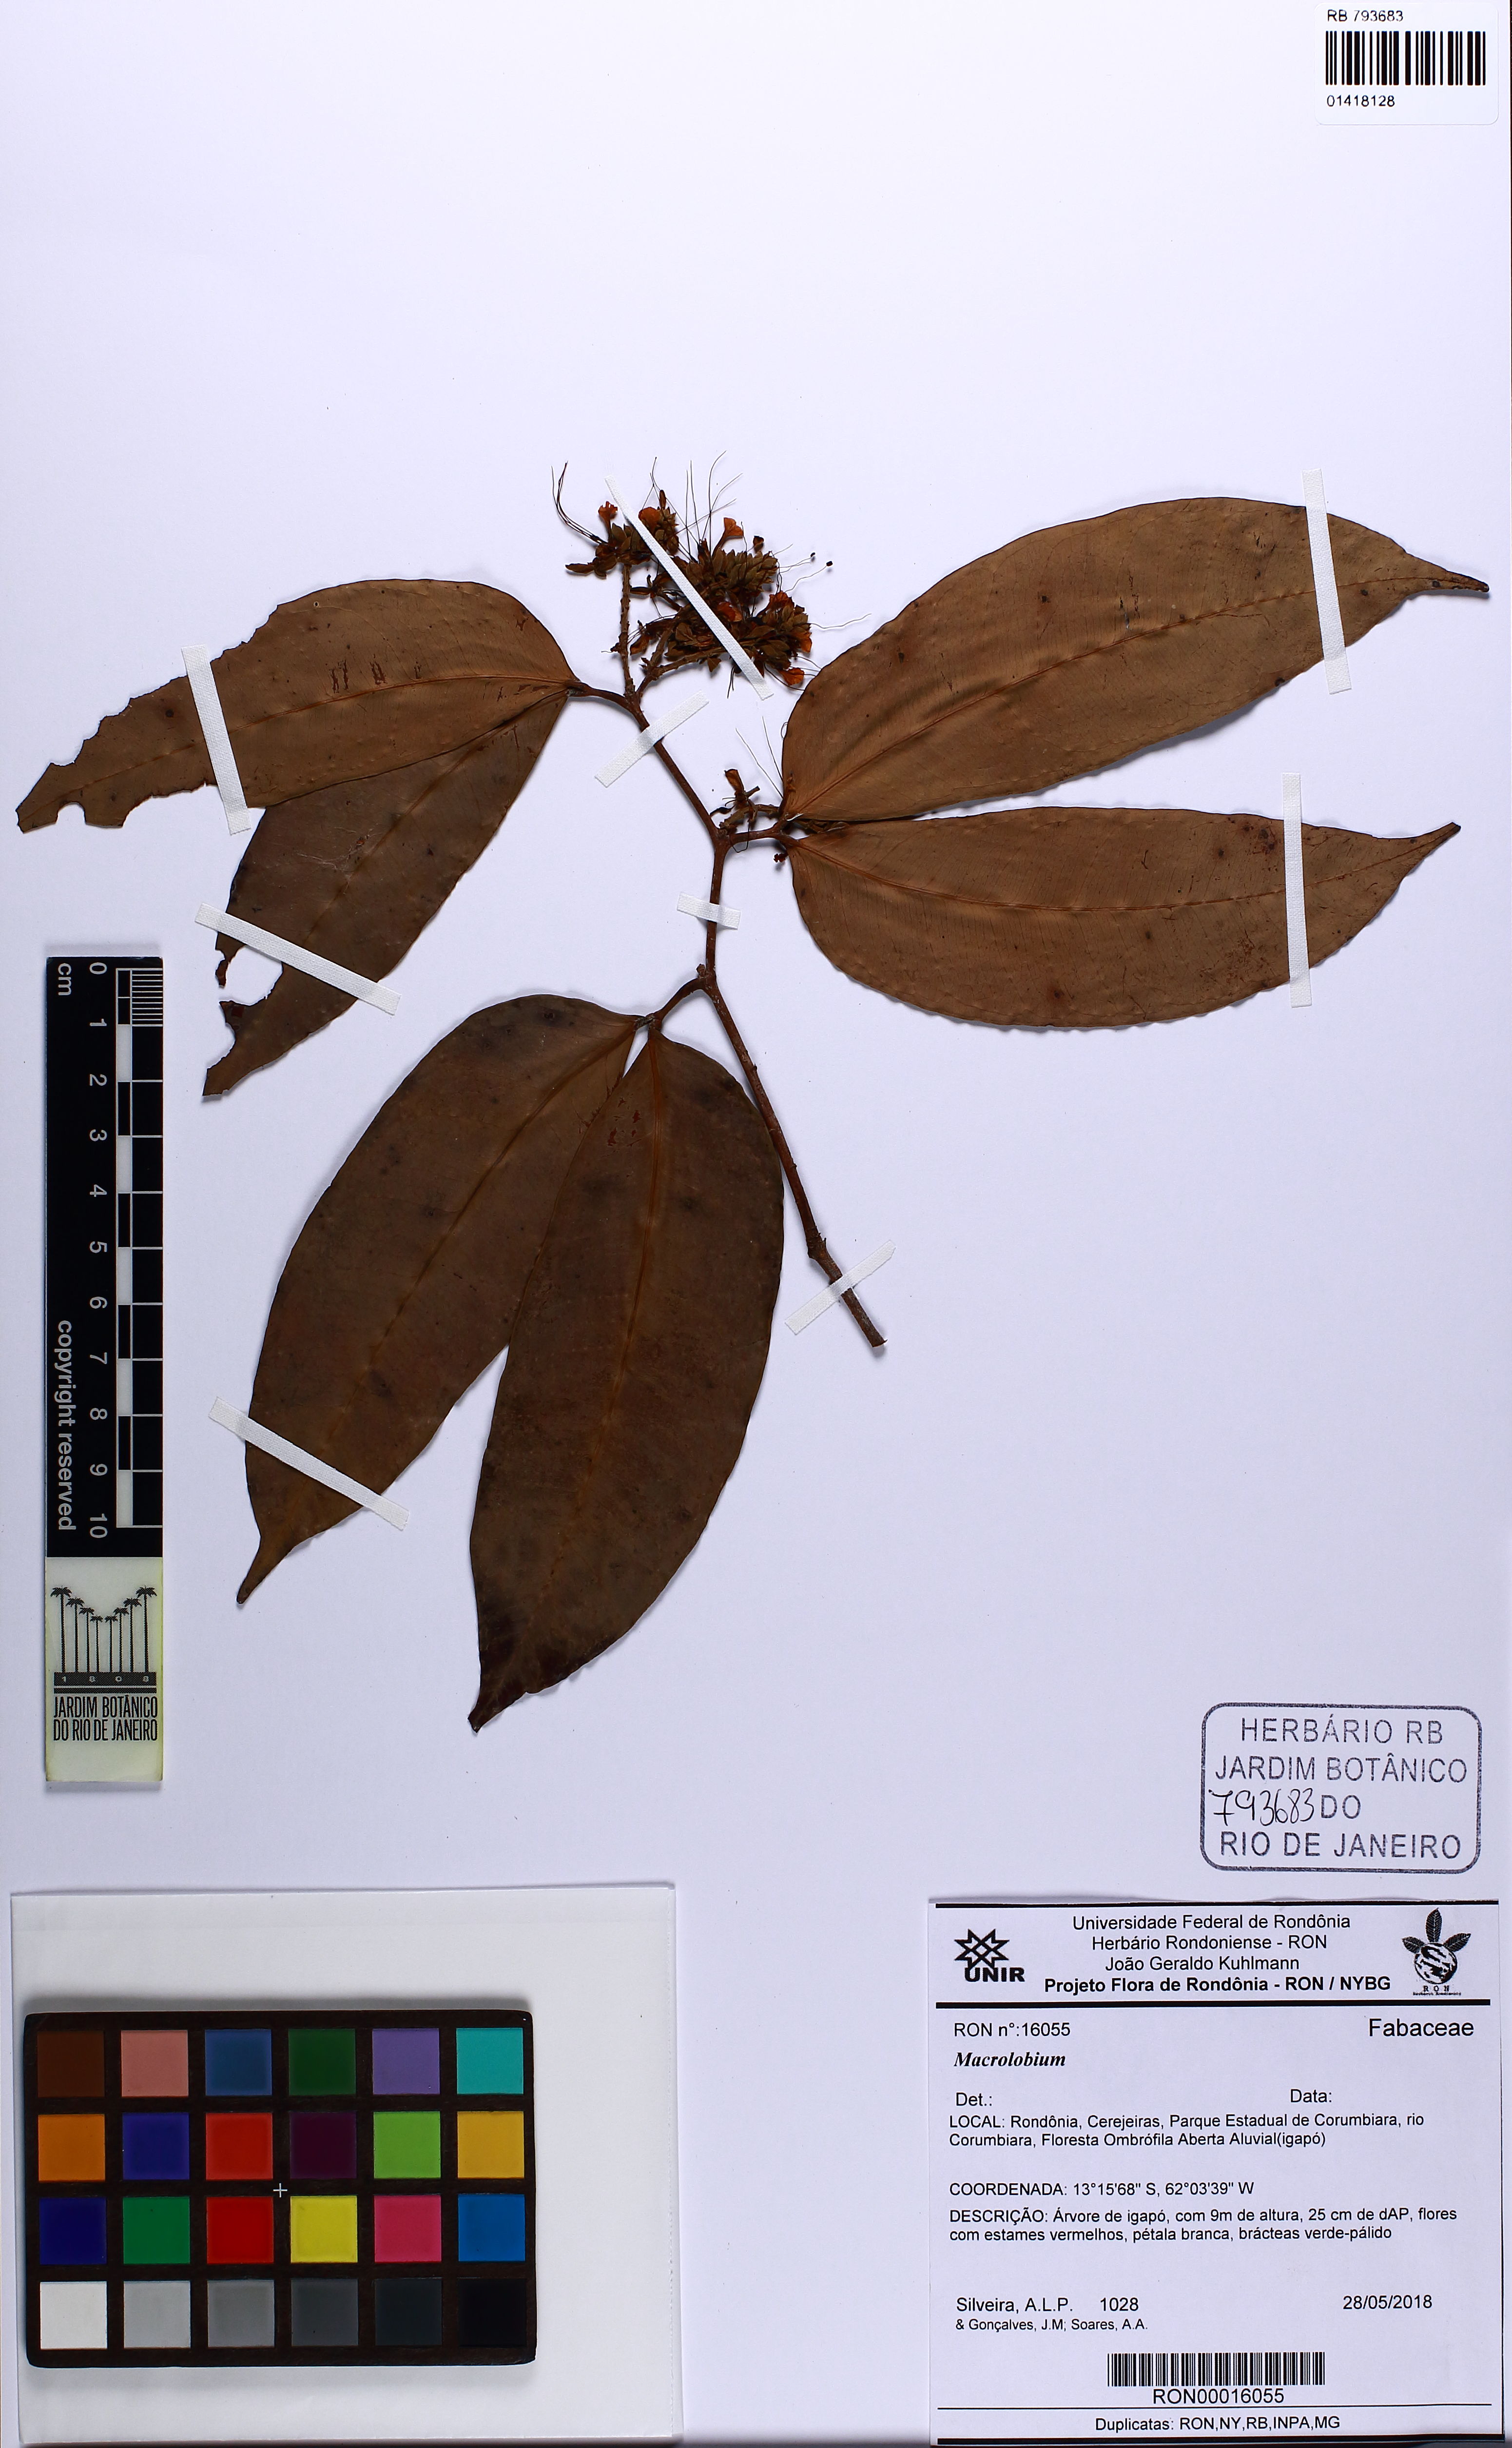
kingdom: Plantae
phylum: Tracheophyta
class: Magnoliopsida
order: Fabales
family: Fabaceae
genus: Macrolobium
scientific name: Macrolobium
